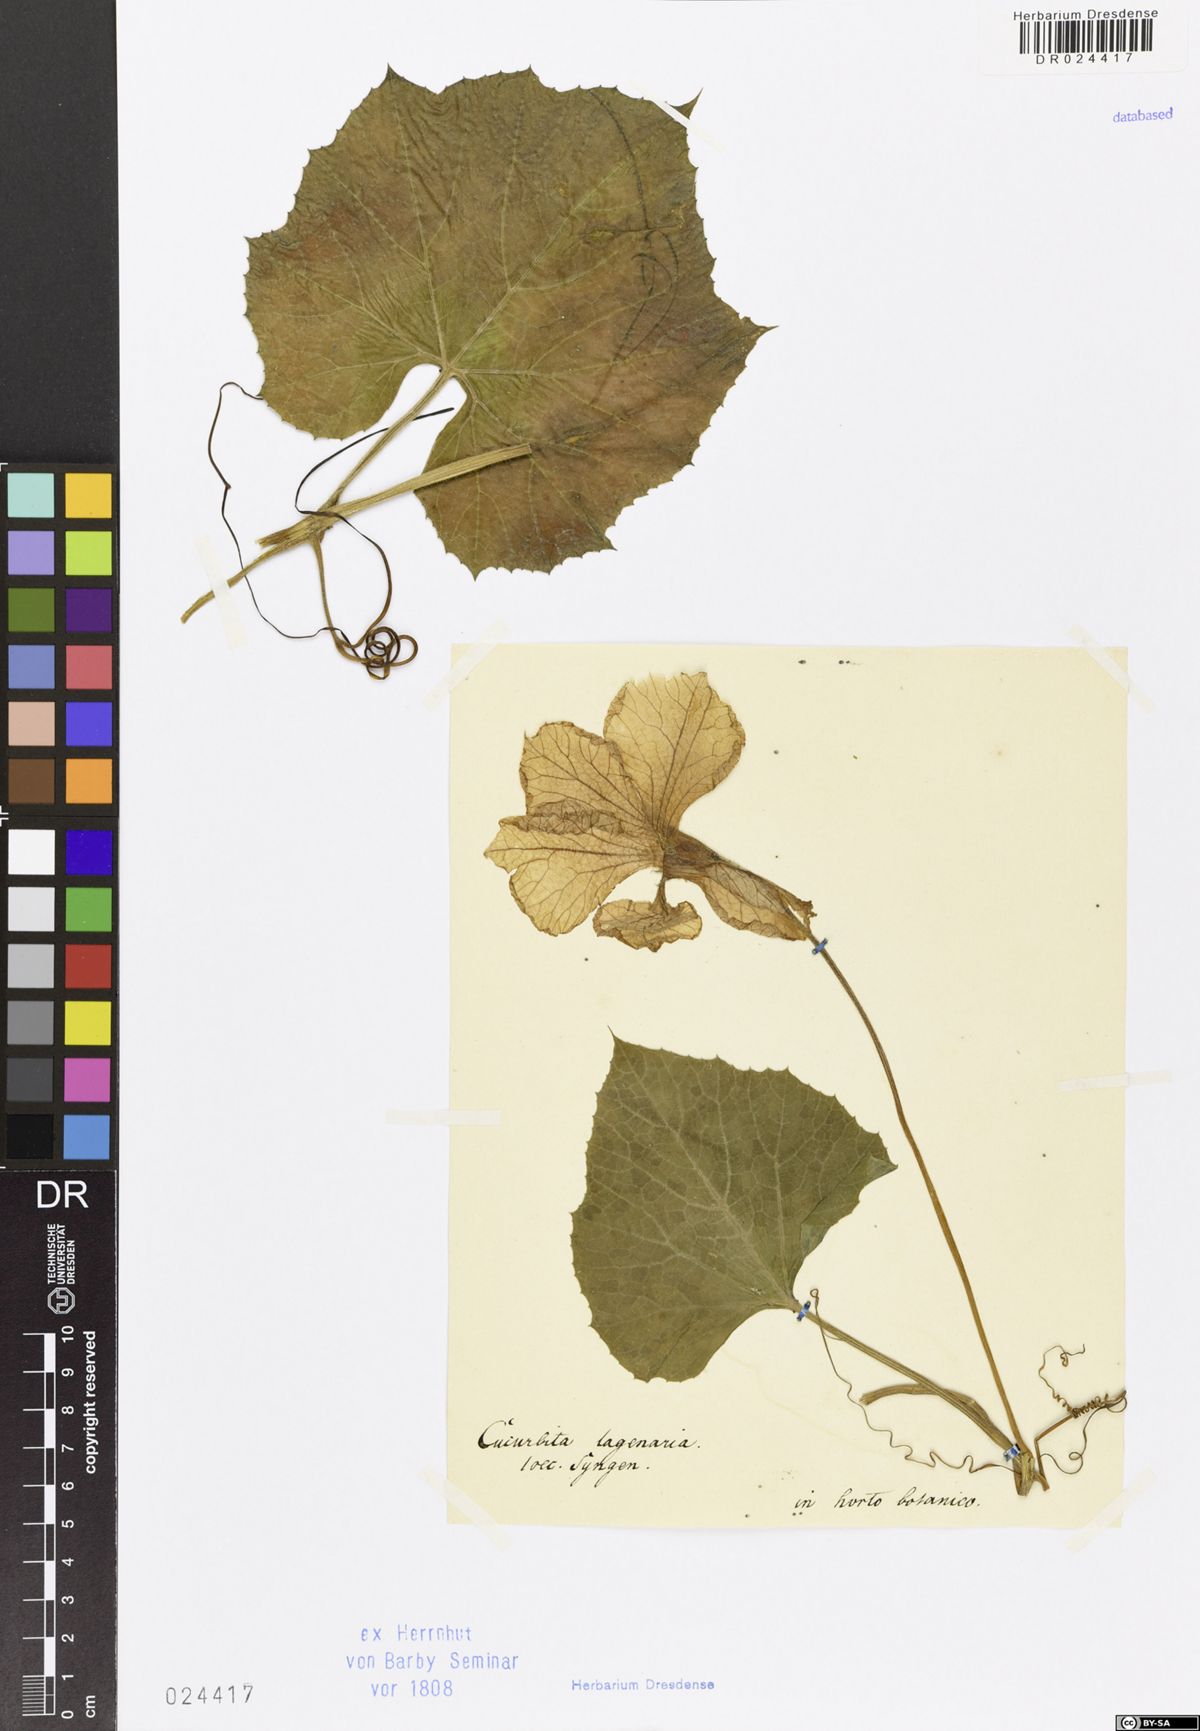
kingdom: Plantae
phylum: Tracheophyta
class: Magnoliopsida
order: Cucurbitales
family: Cucurbitaceae
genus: Lagenaria
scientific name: Lagenaria siceraria
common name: Bottle gourd
